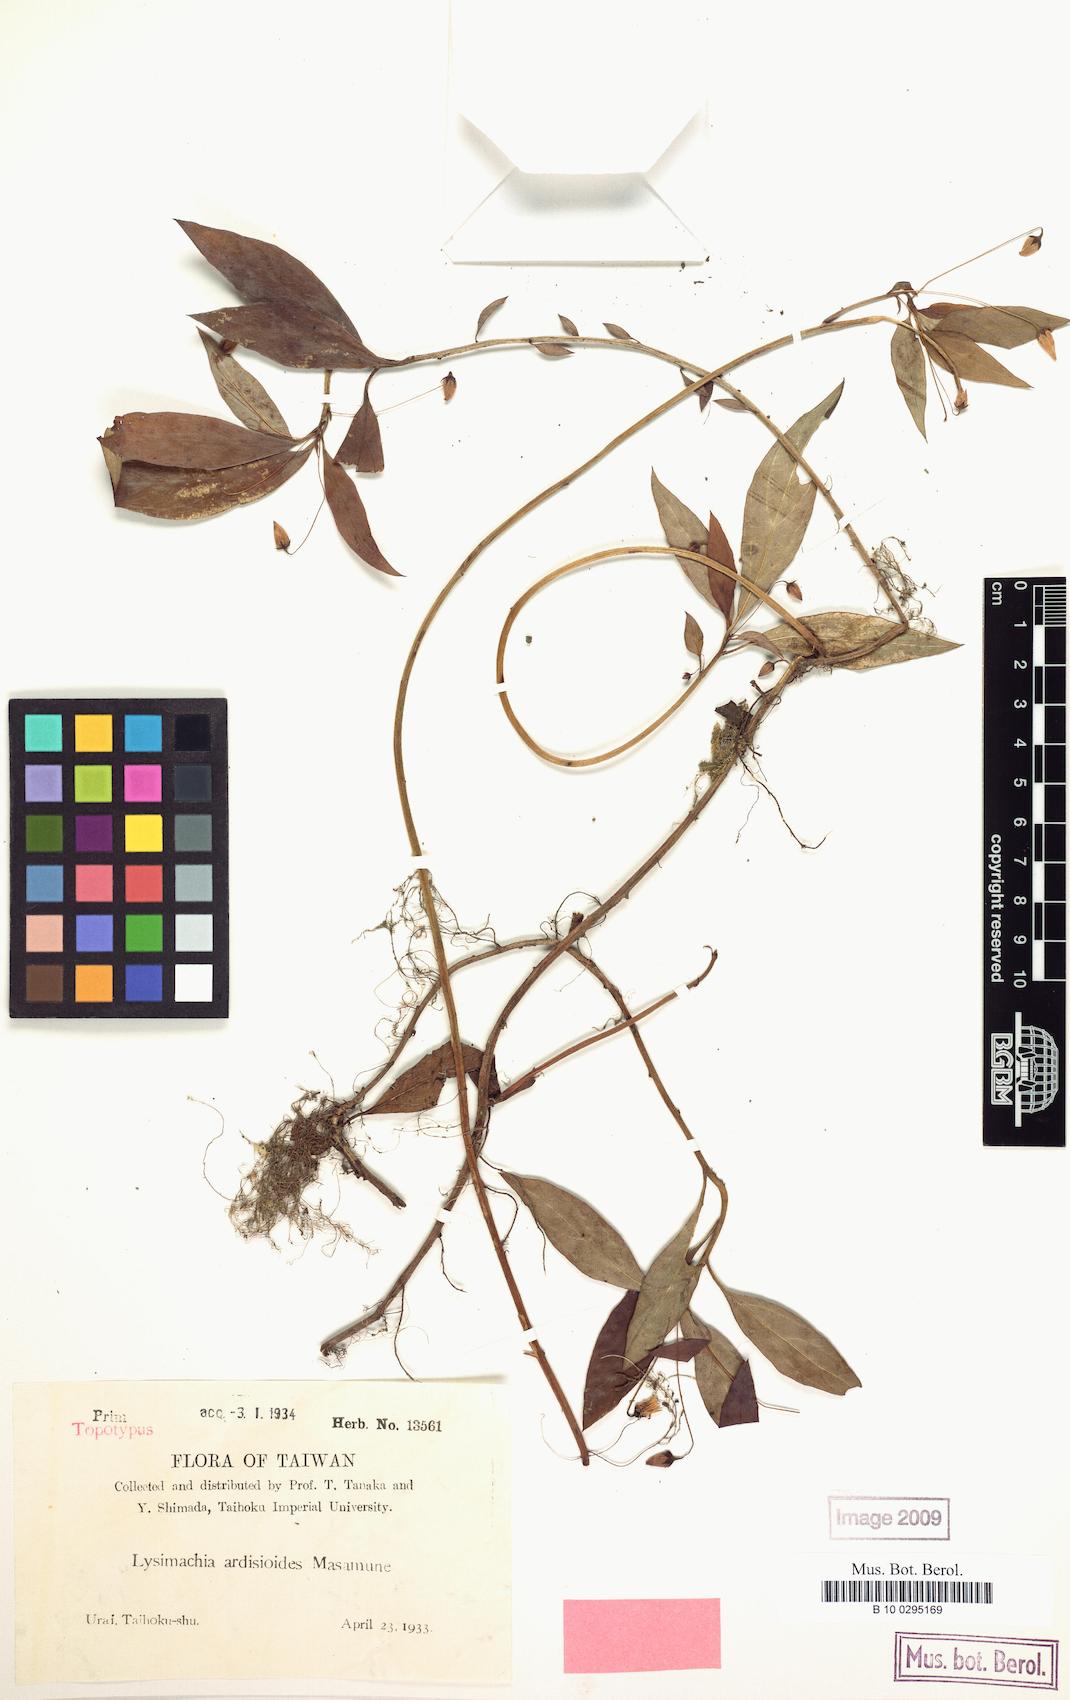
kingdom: Plantae
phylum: Tracheophyta
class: Magnoliopsida
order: Ericales
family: Primulaceae
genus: Lysimachia
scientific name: Lysimachia ardisioides
